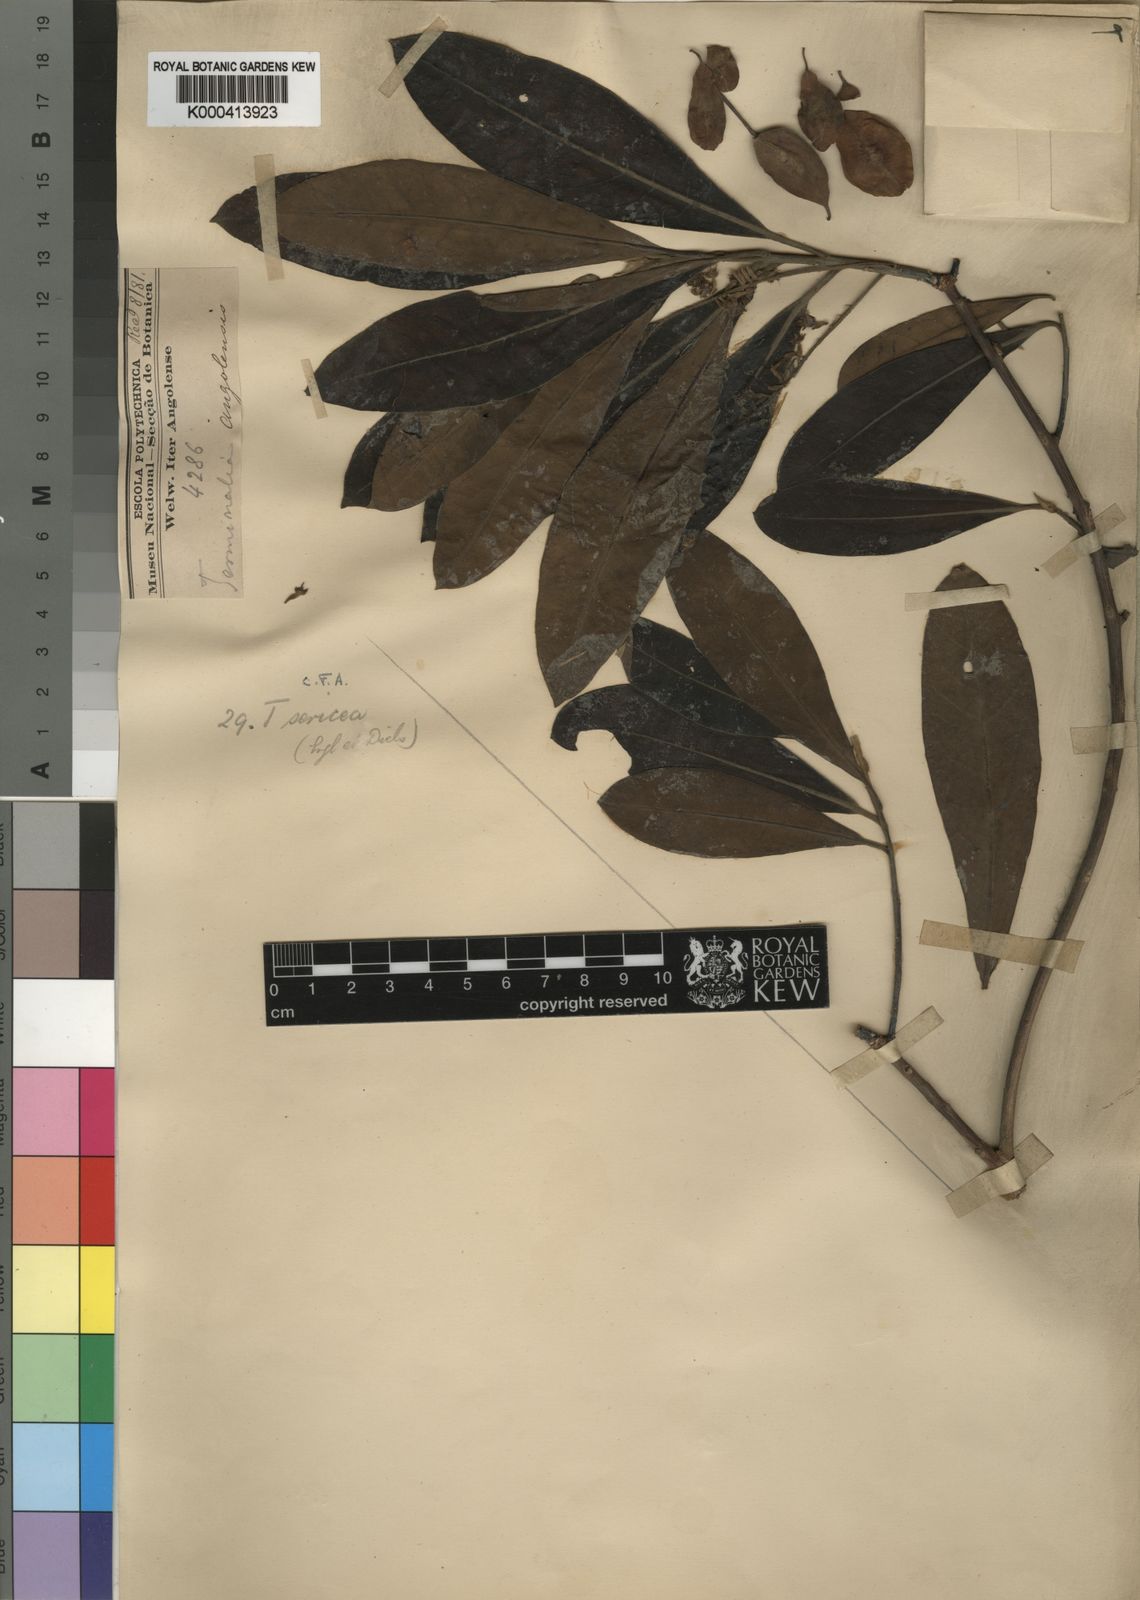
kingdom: Plantae
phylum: Tracheophyta
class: Magnoliopsida
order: Myrtales
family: Combretaceae
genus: Terminalia
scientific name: Terminalia sericea
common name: Clusterleaf
